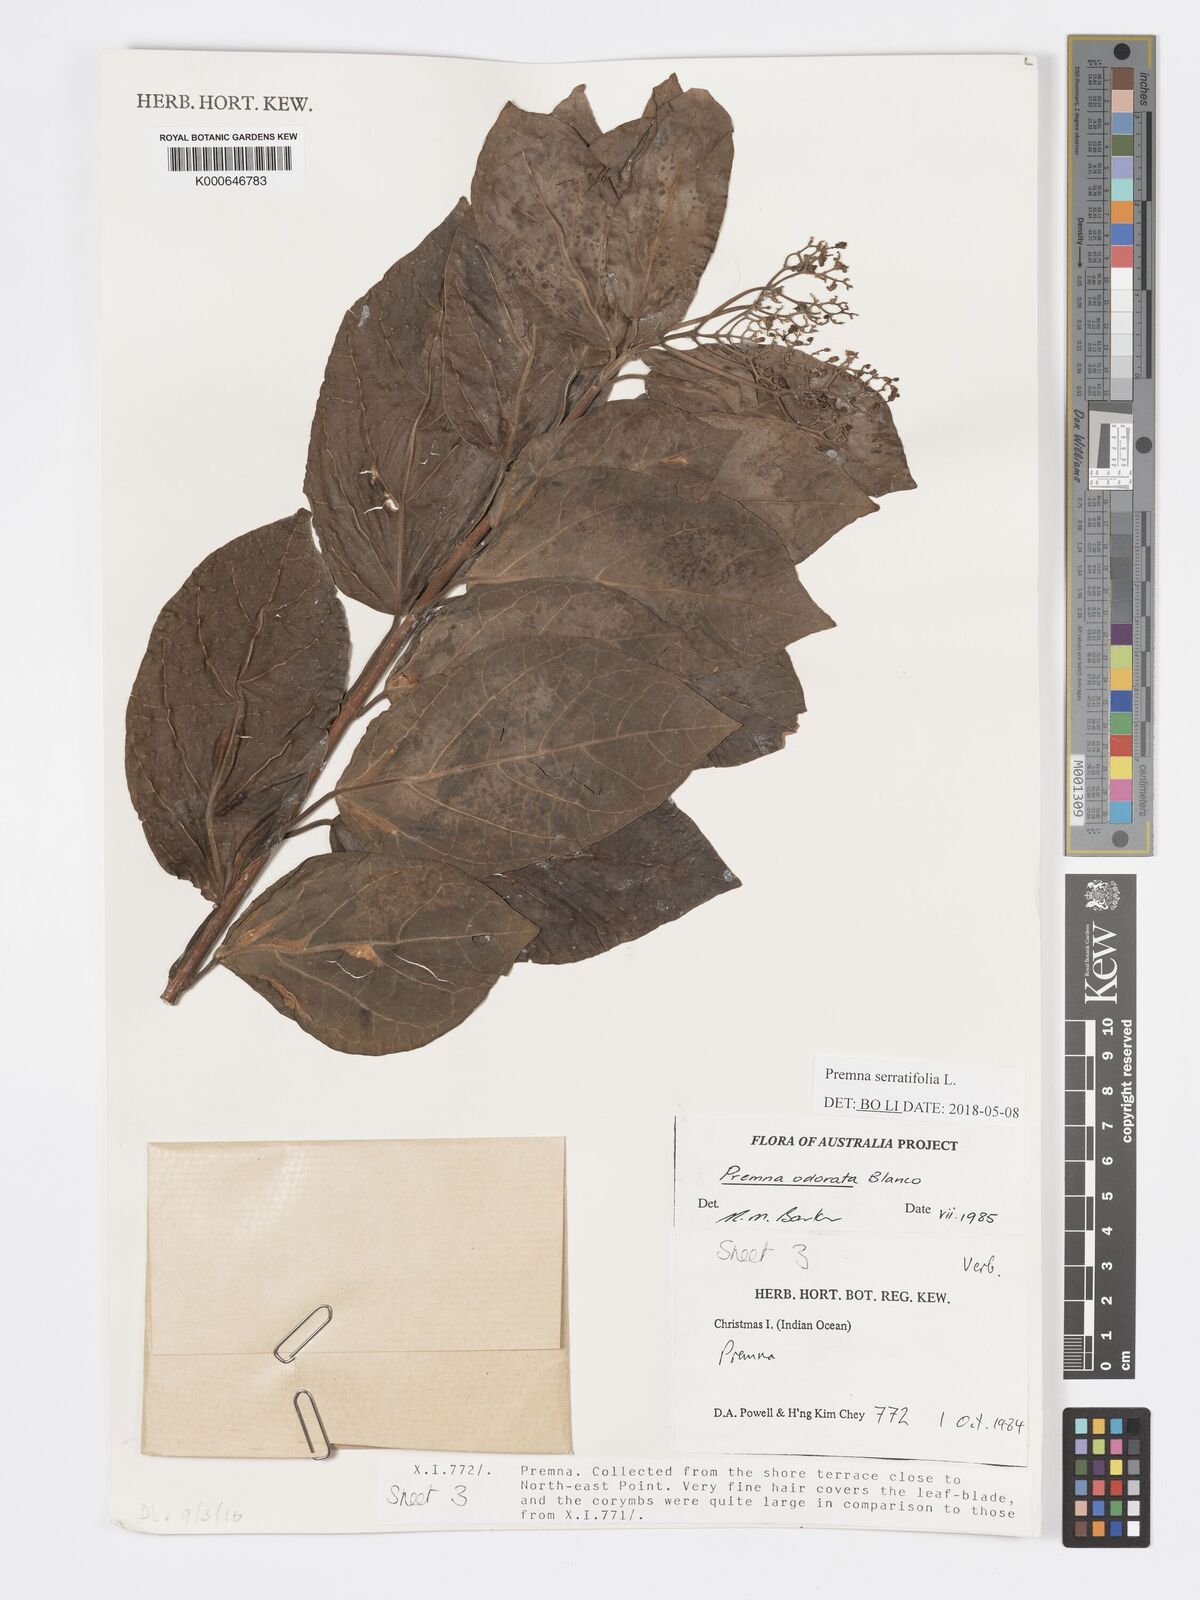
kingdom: Plantae
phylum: Tracheophyta
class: Magnoliopsida
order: Lamiales
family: Lamiaceae
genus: Premna
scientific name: Premna odorata
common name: Fragrant premna
